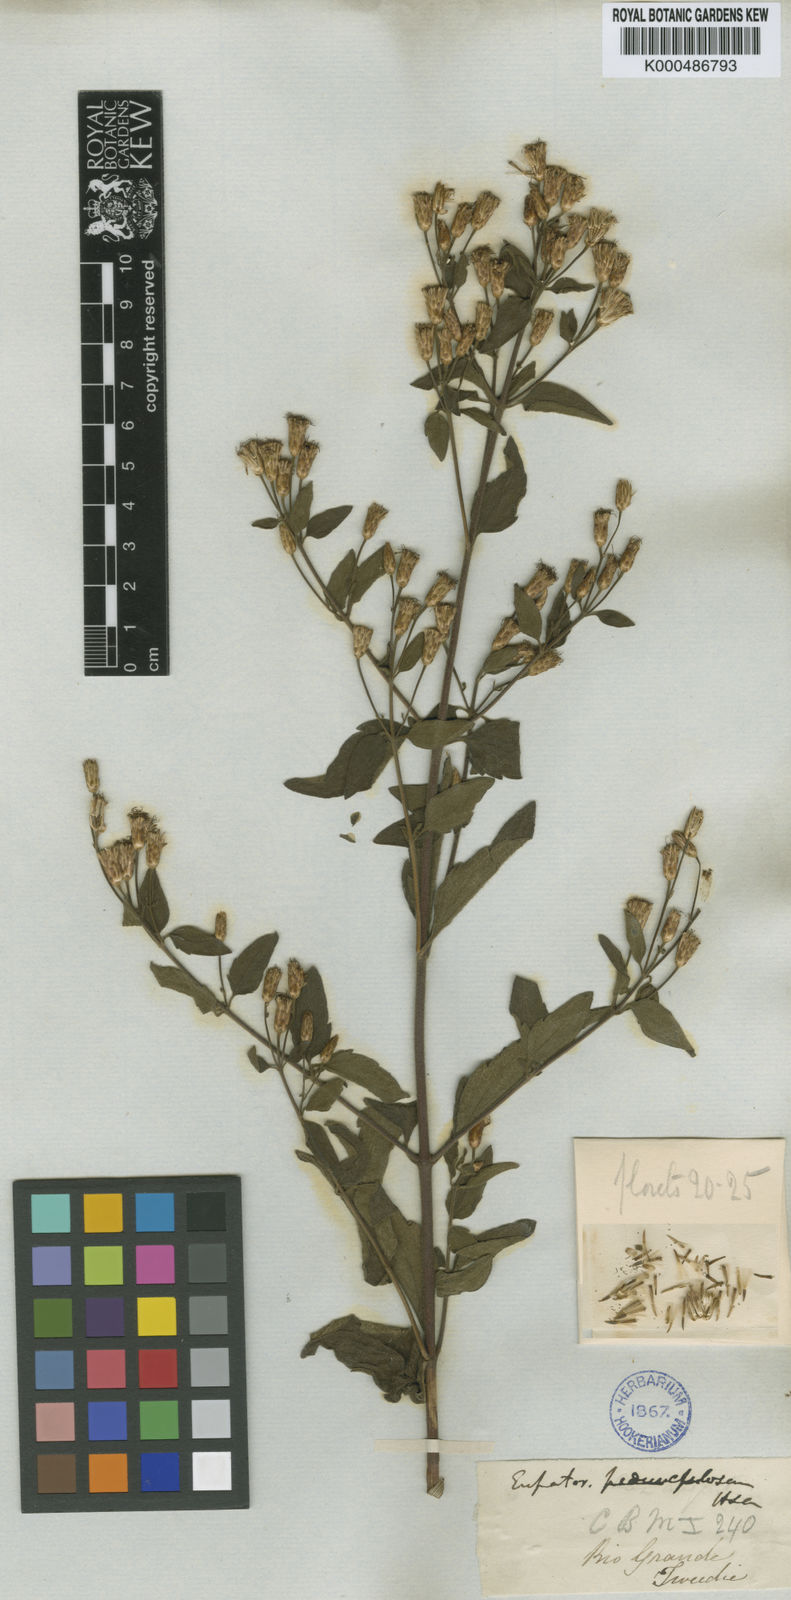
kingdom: Plantae
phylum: Tracheophyta
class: Magnoliopsida
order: Asterales
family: Asteraceae
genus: Chromolaena
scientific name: Chromolaena pedunculosa
